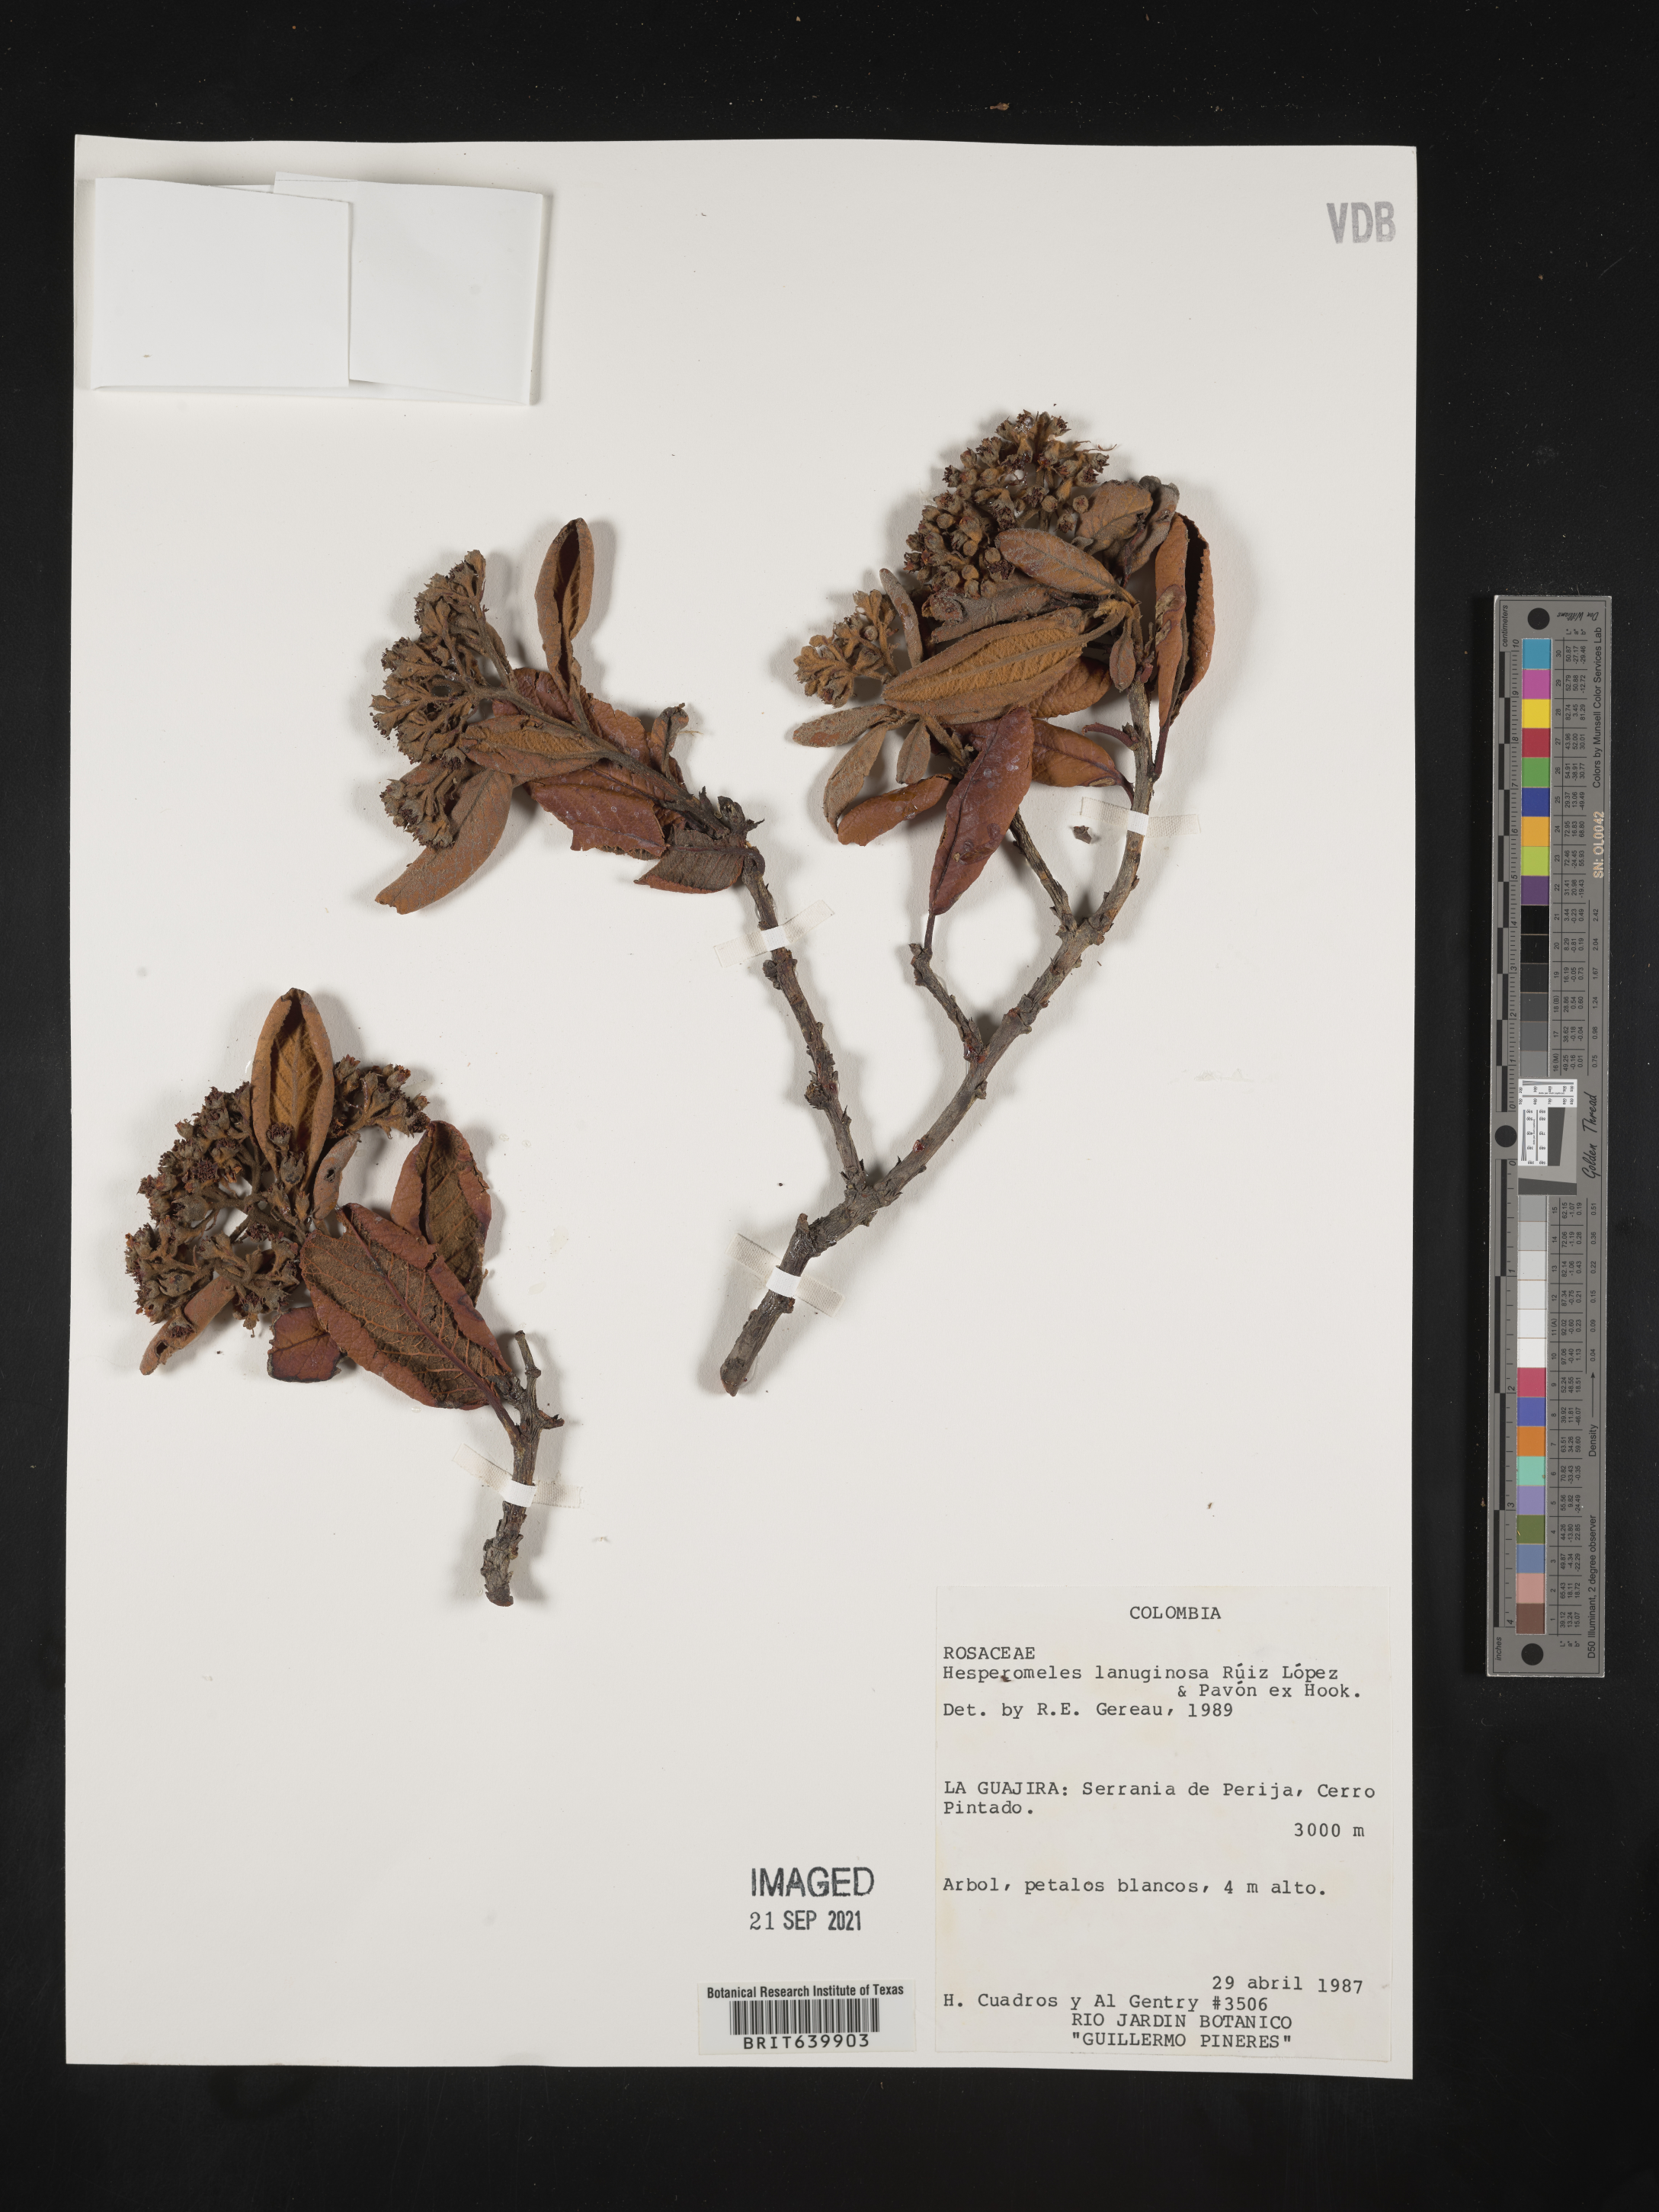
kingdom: Plantae
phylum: Tracheophyta
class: Magnoliopsida
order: Rosales
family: Rosaceae
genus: Hesperomeles
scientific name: Hesperomeles
